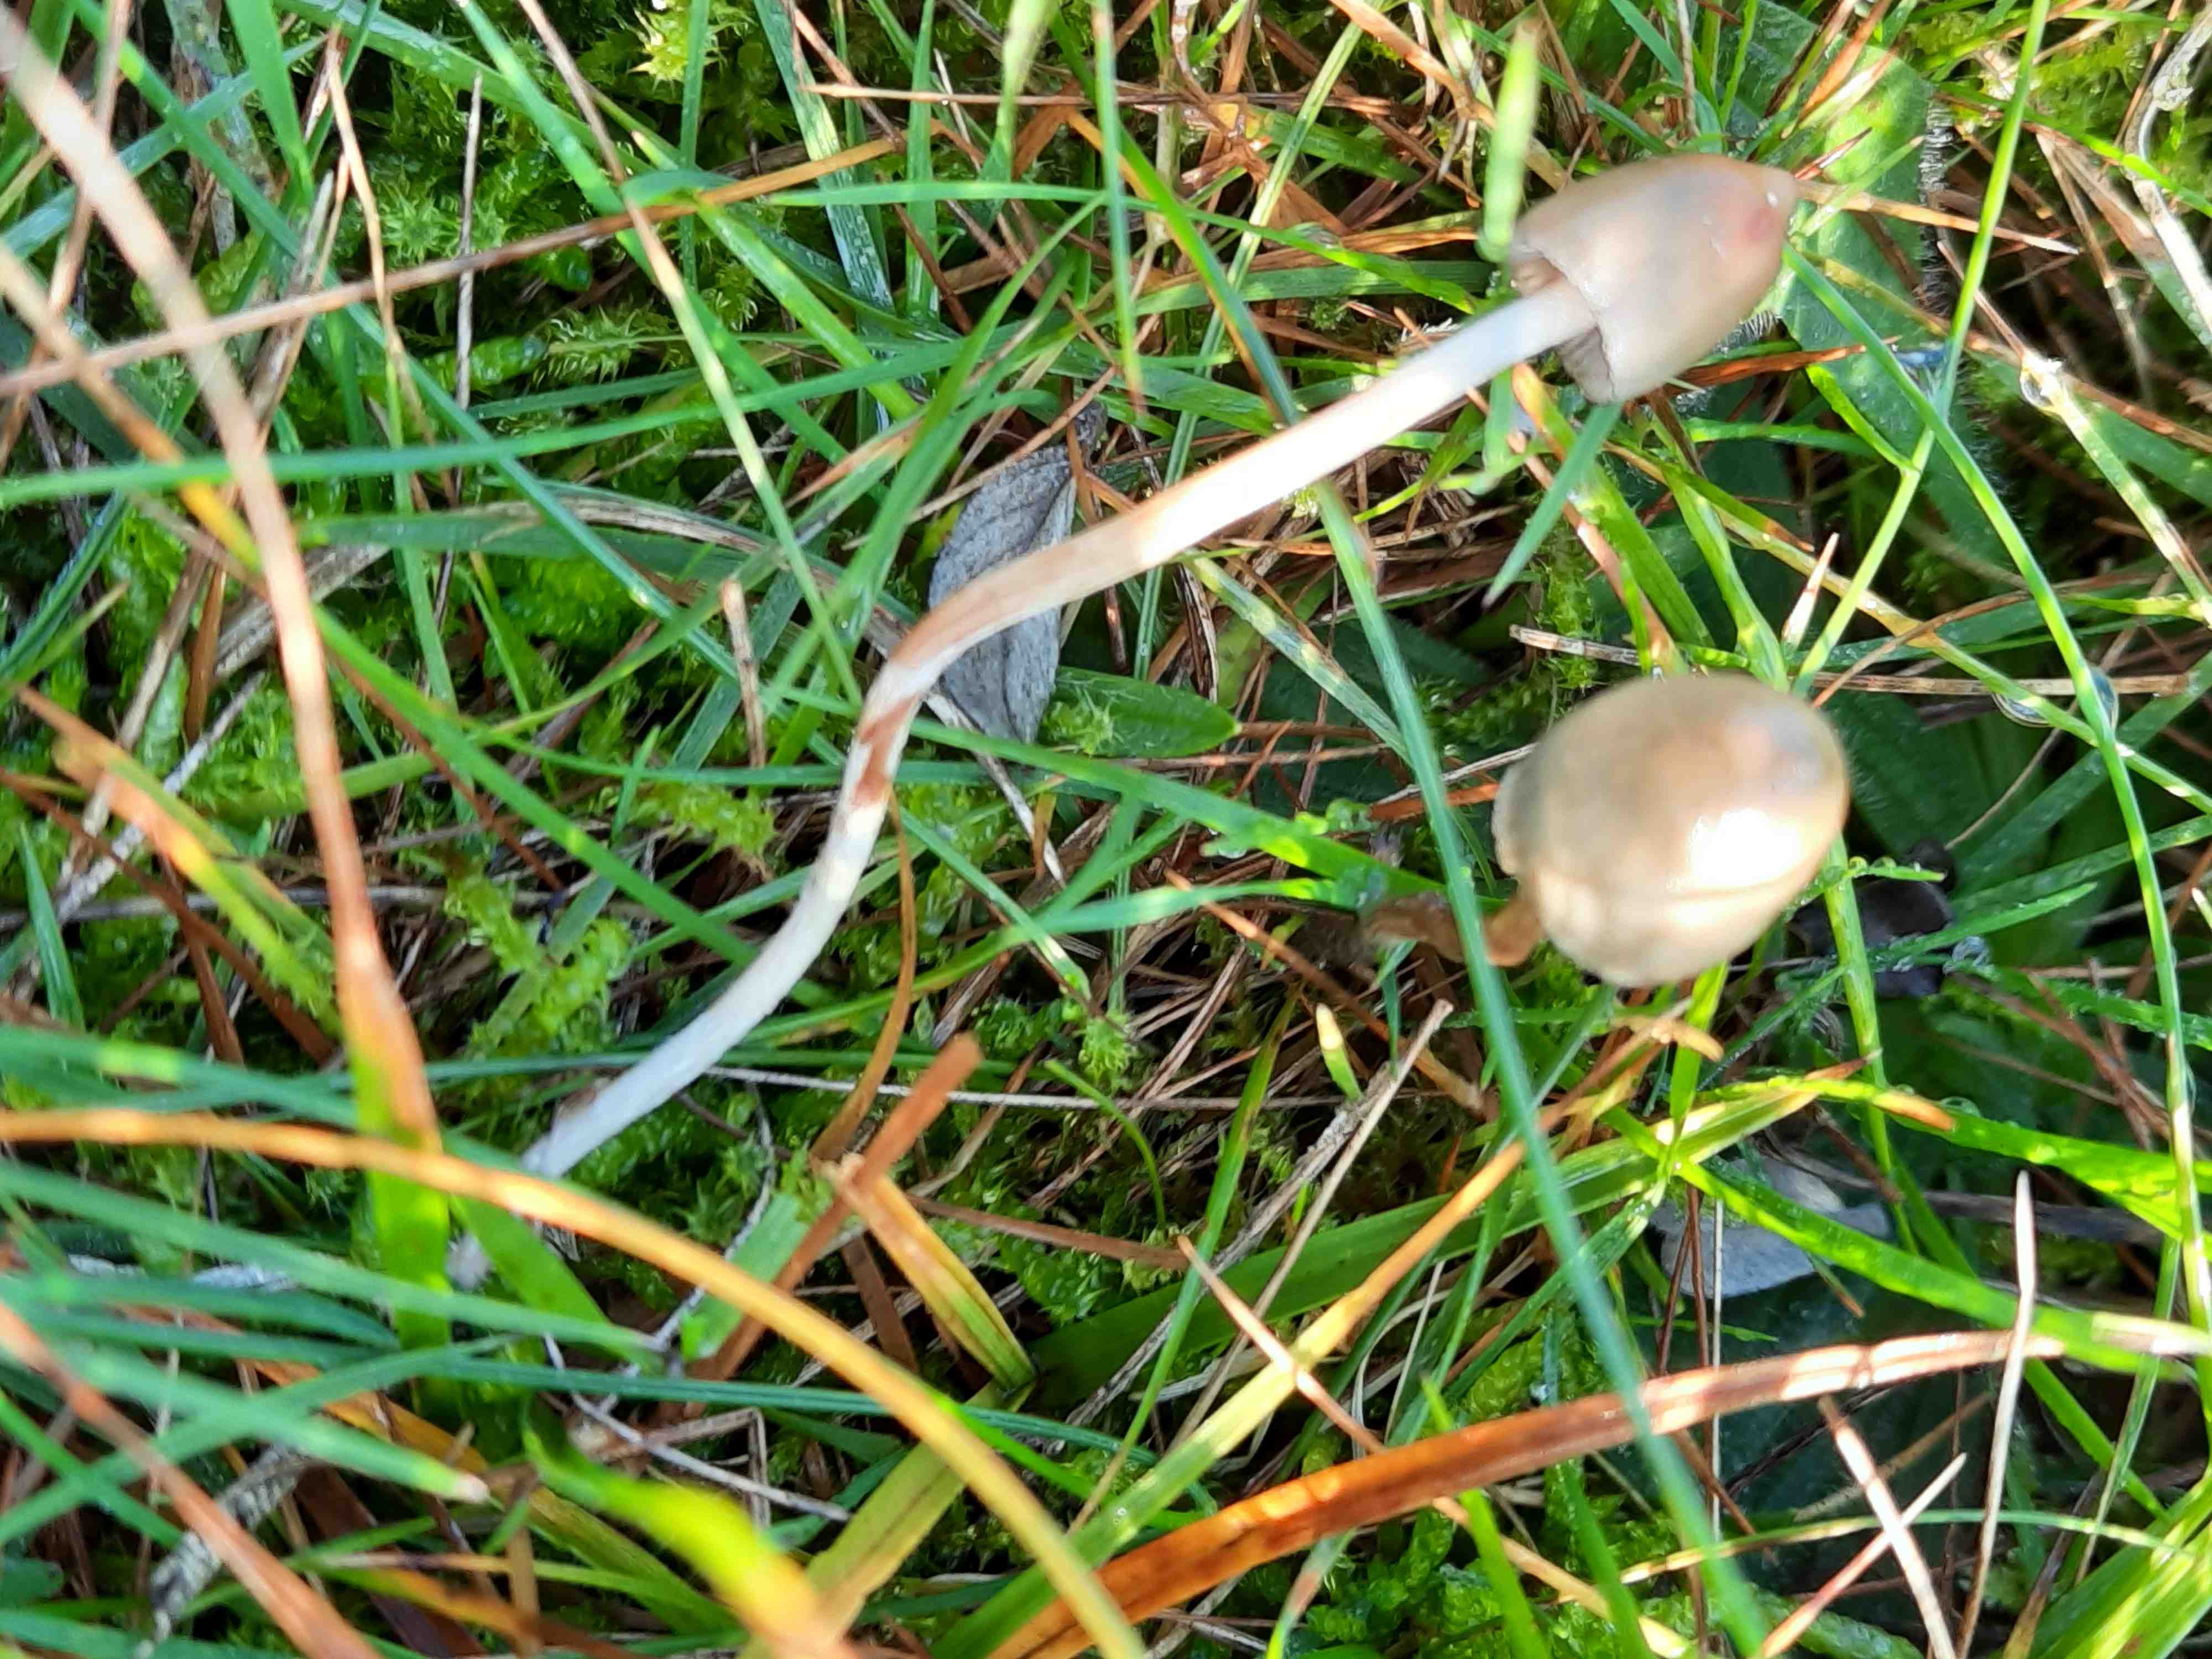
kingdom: Fungi
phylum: Basidiomycota
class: Agaricomycetes
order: Agaricales
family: Hymenogastraceae
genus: Psilocybe
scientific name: Psilocybe semilanceata
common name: spids nøgenhat
